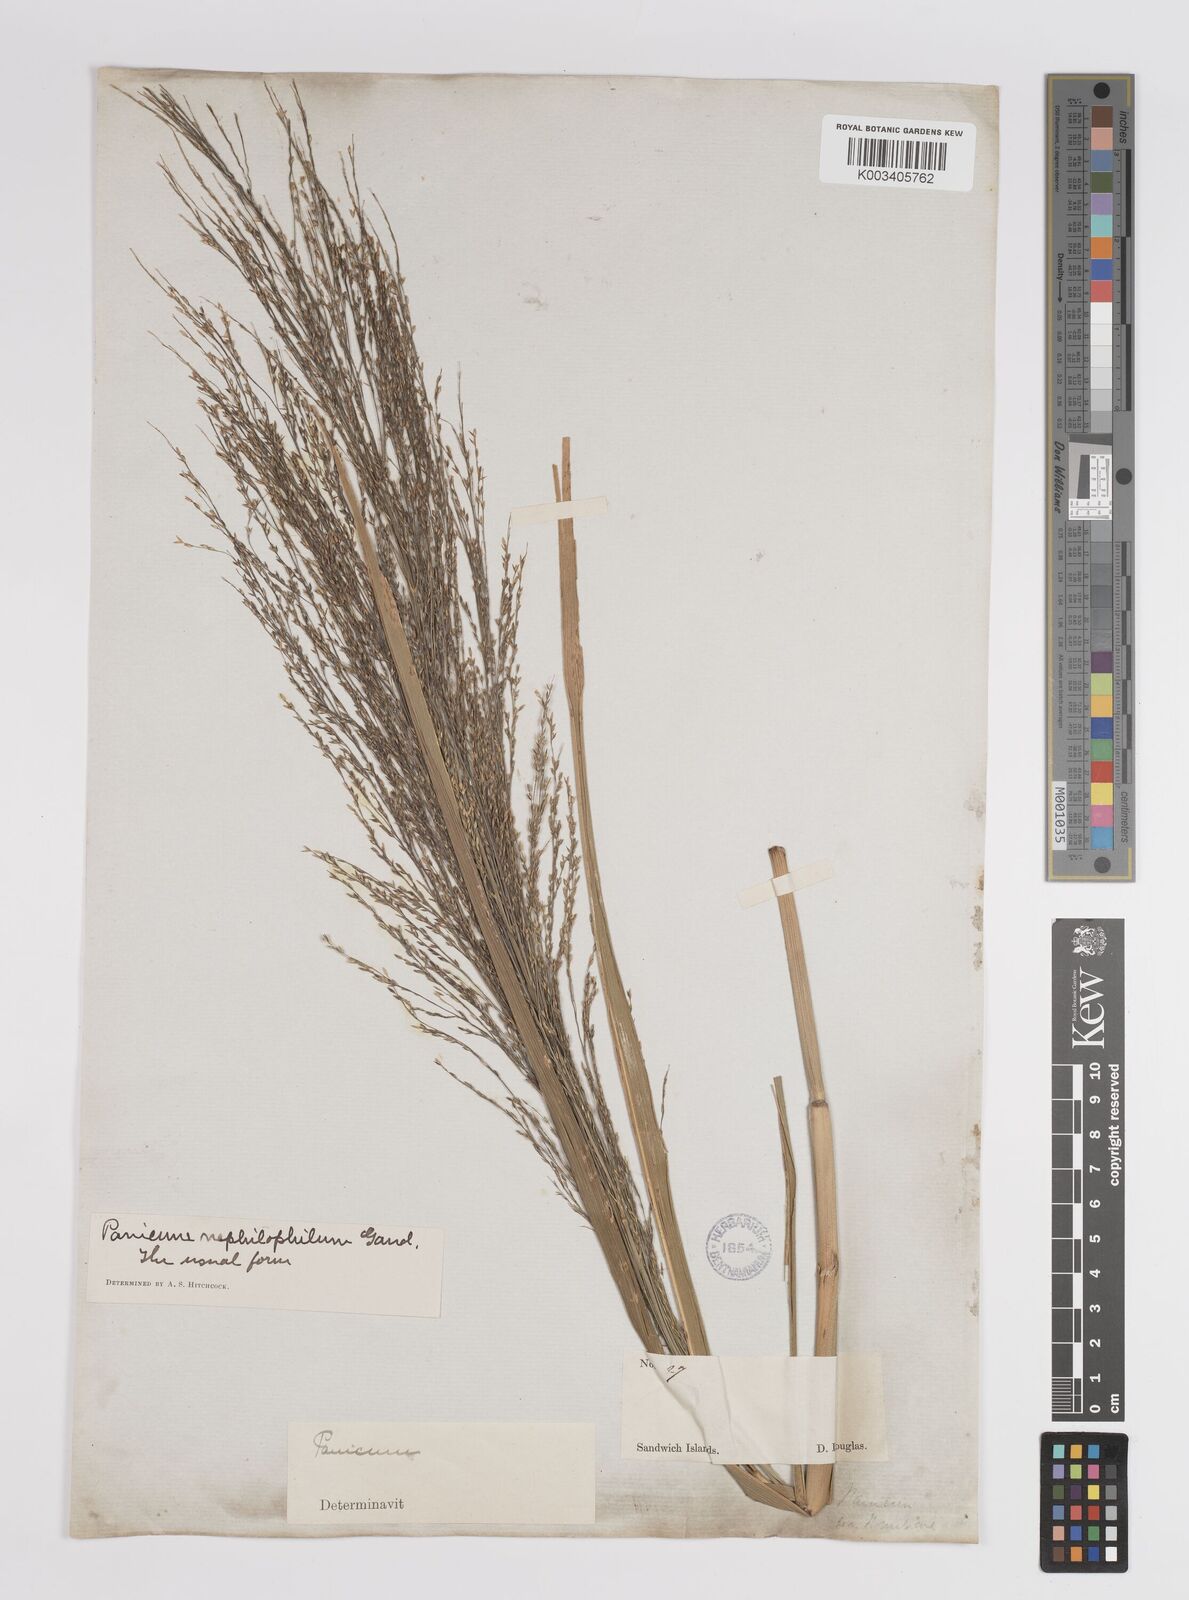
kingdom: Plantae
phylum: Tracheophyta
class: Liliopsida
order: Poales
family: Poaceae
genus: Panicum
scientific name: Panicum nephelophilum
